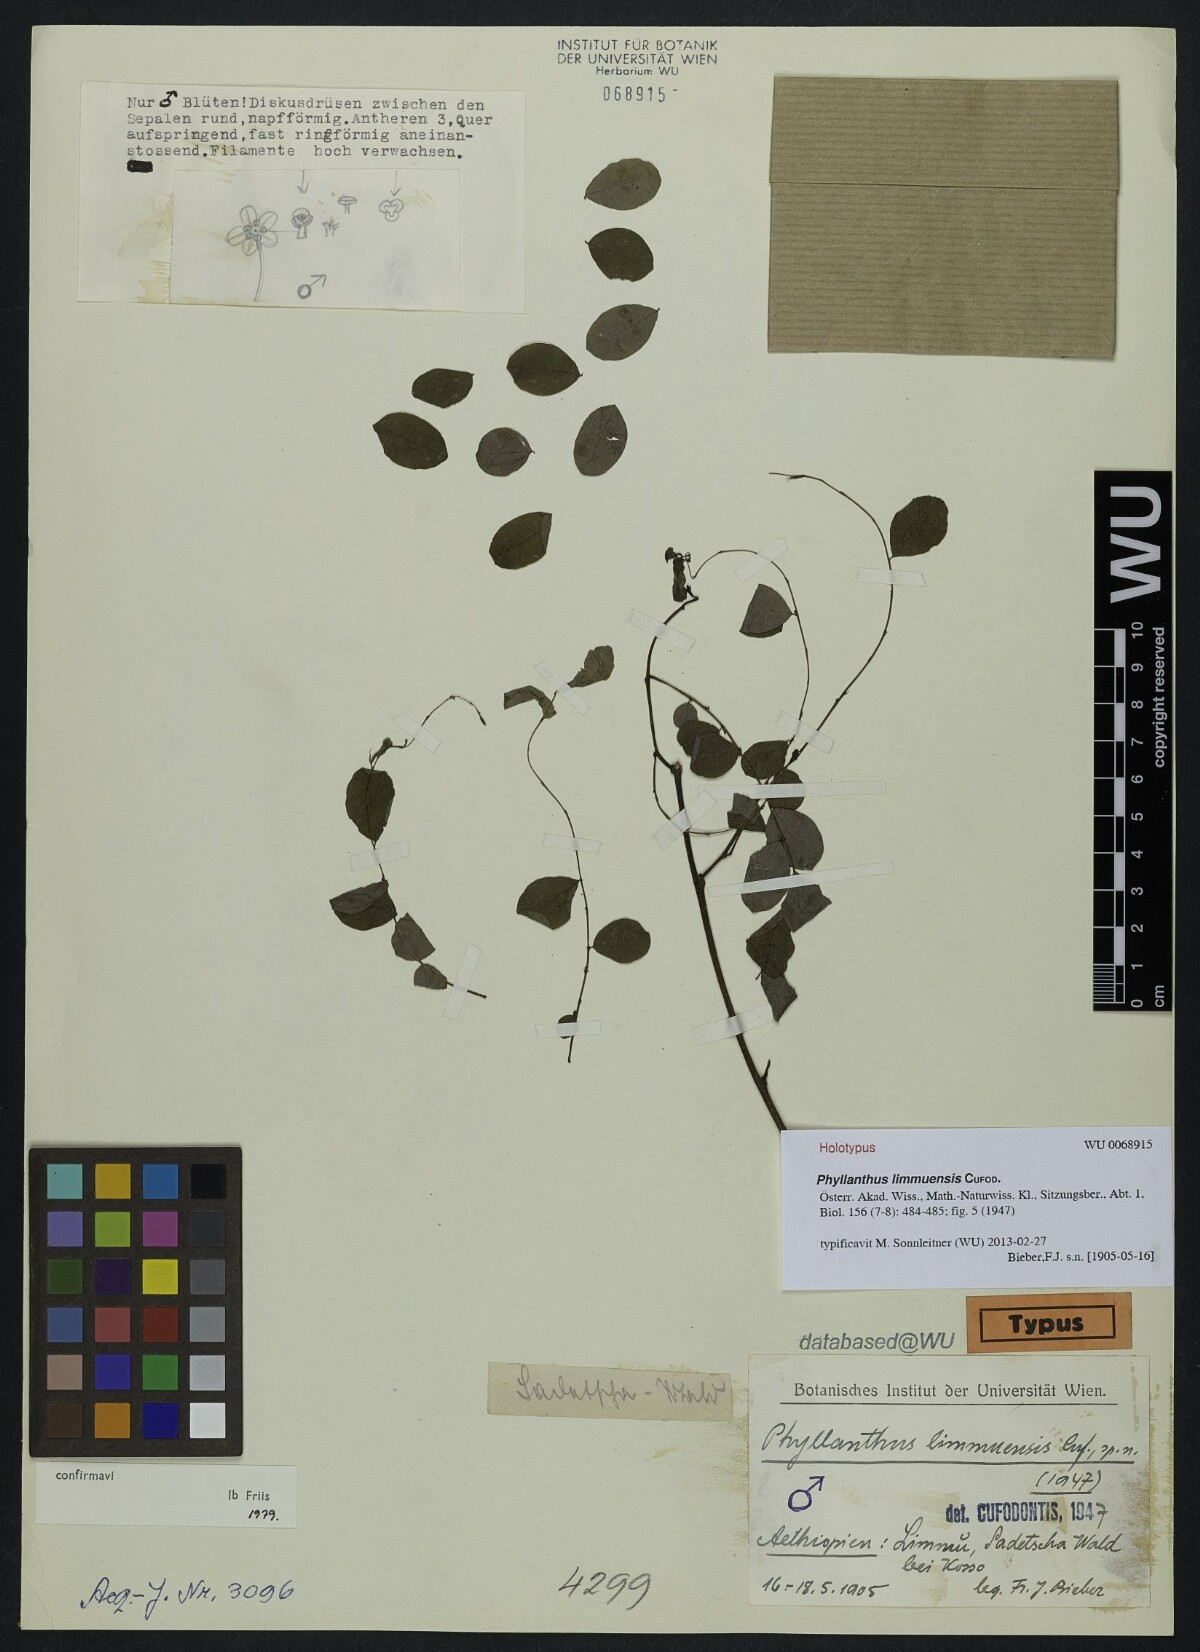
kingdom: Plantae
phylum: Tracheophyta
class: Magnoliopsida
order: Malpighiales
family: Phyllanthaceae
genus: Phyllanthus
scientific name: Phyllanthus limmuensis
